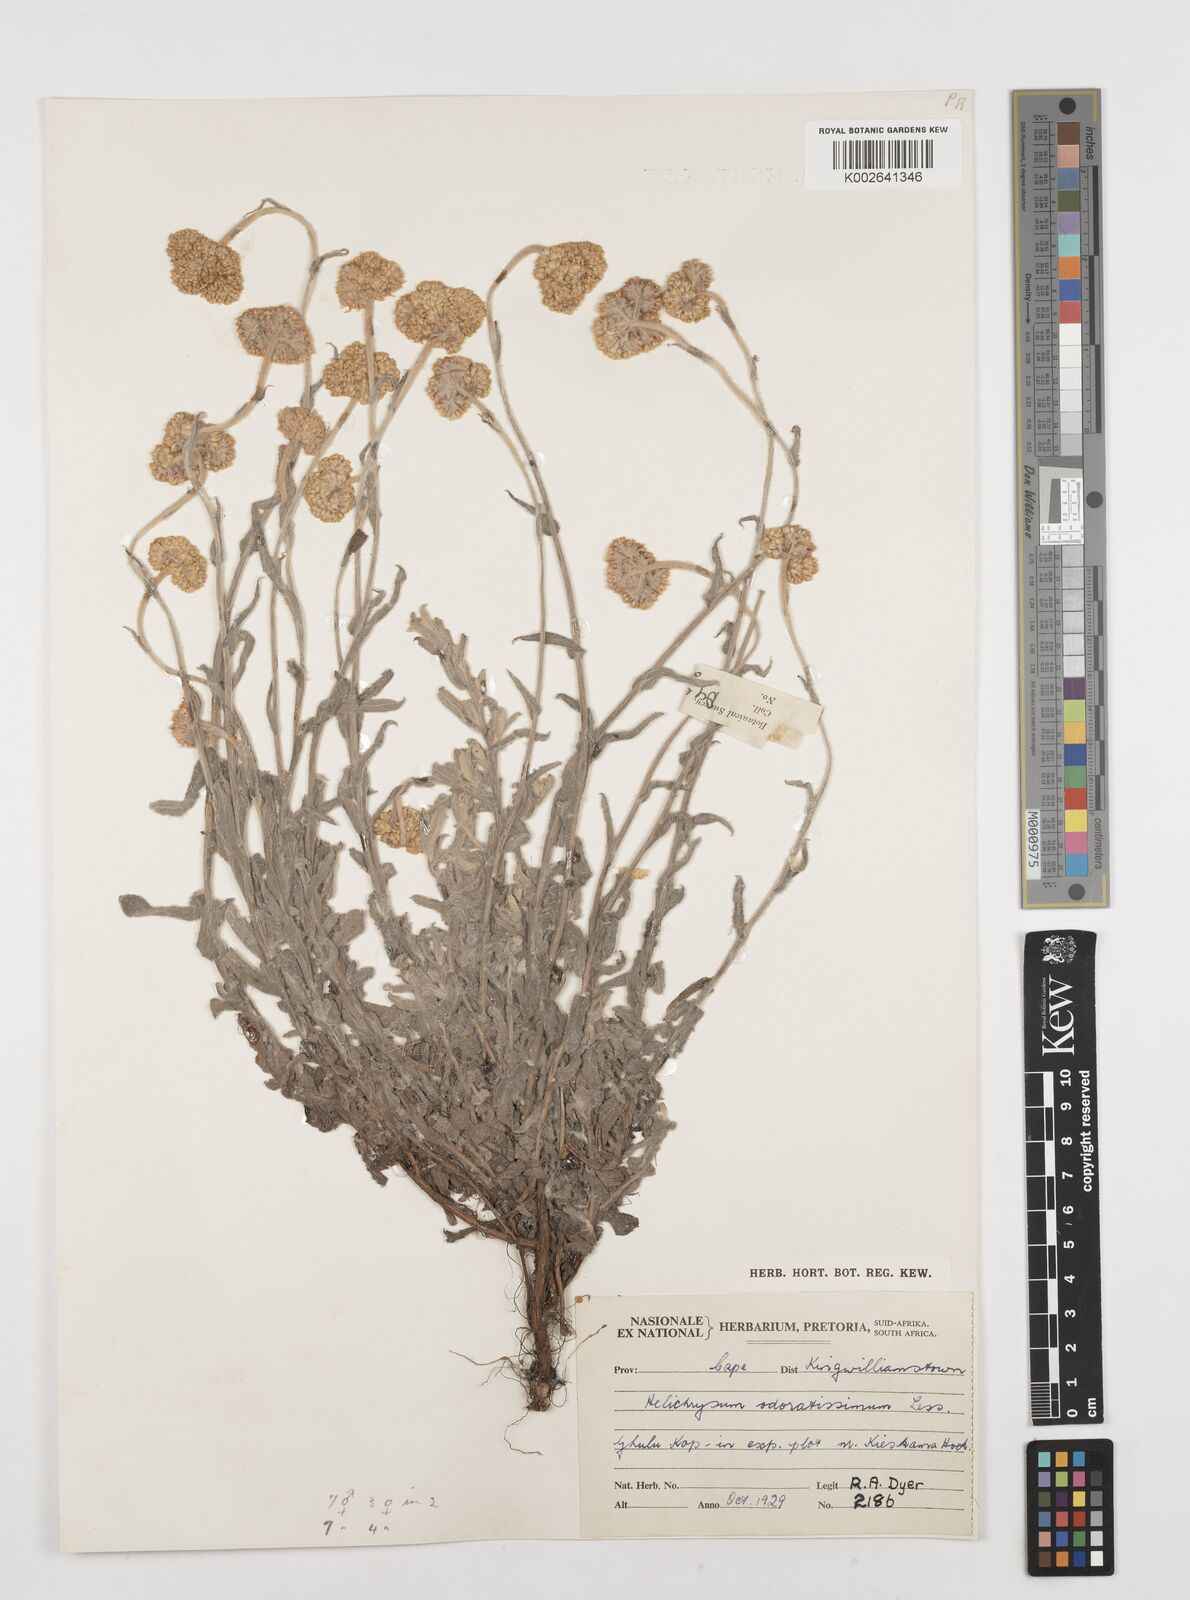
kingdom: Plantae
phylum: Tracheophyta
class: Magnoliopsida
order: Asterales
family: Asteraceae
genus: Helichrysum
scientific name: Helichrysum odoratissimum
